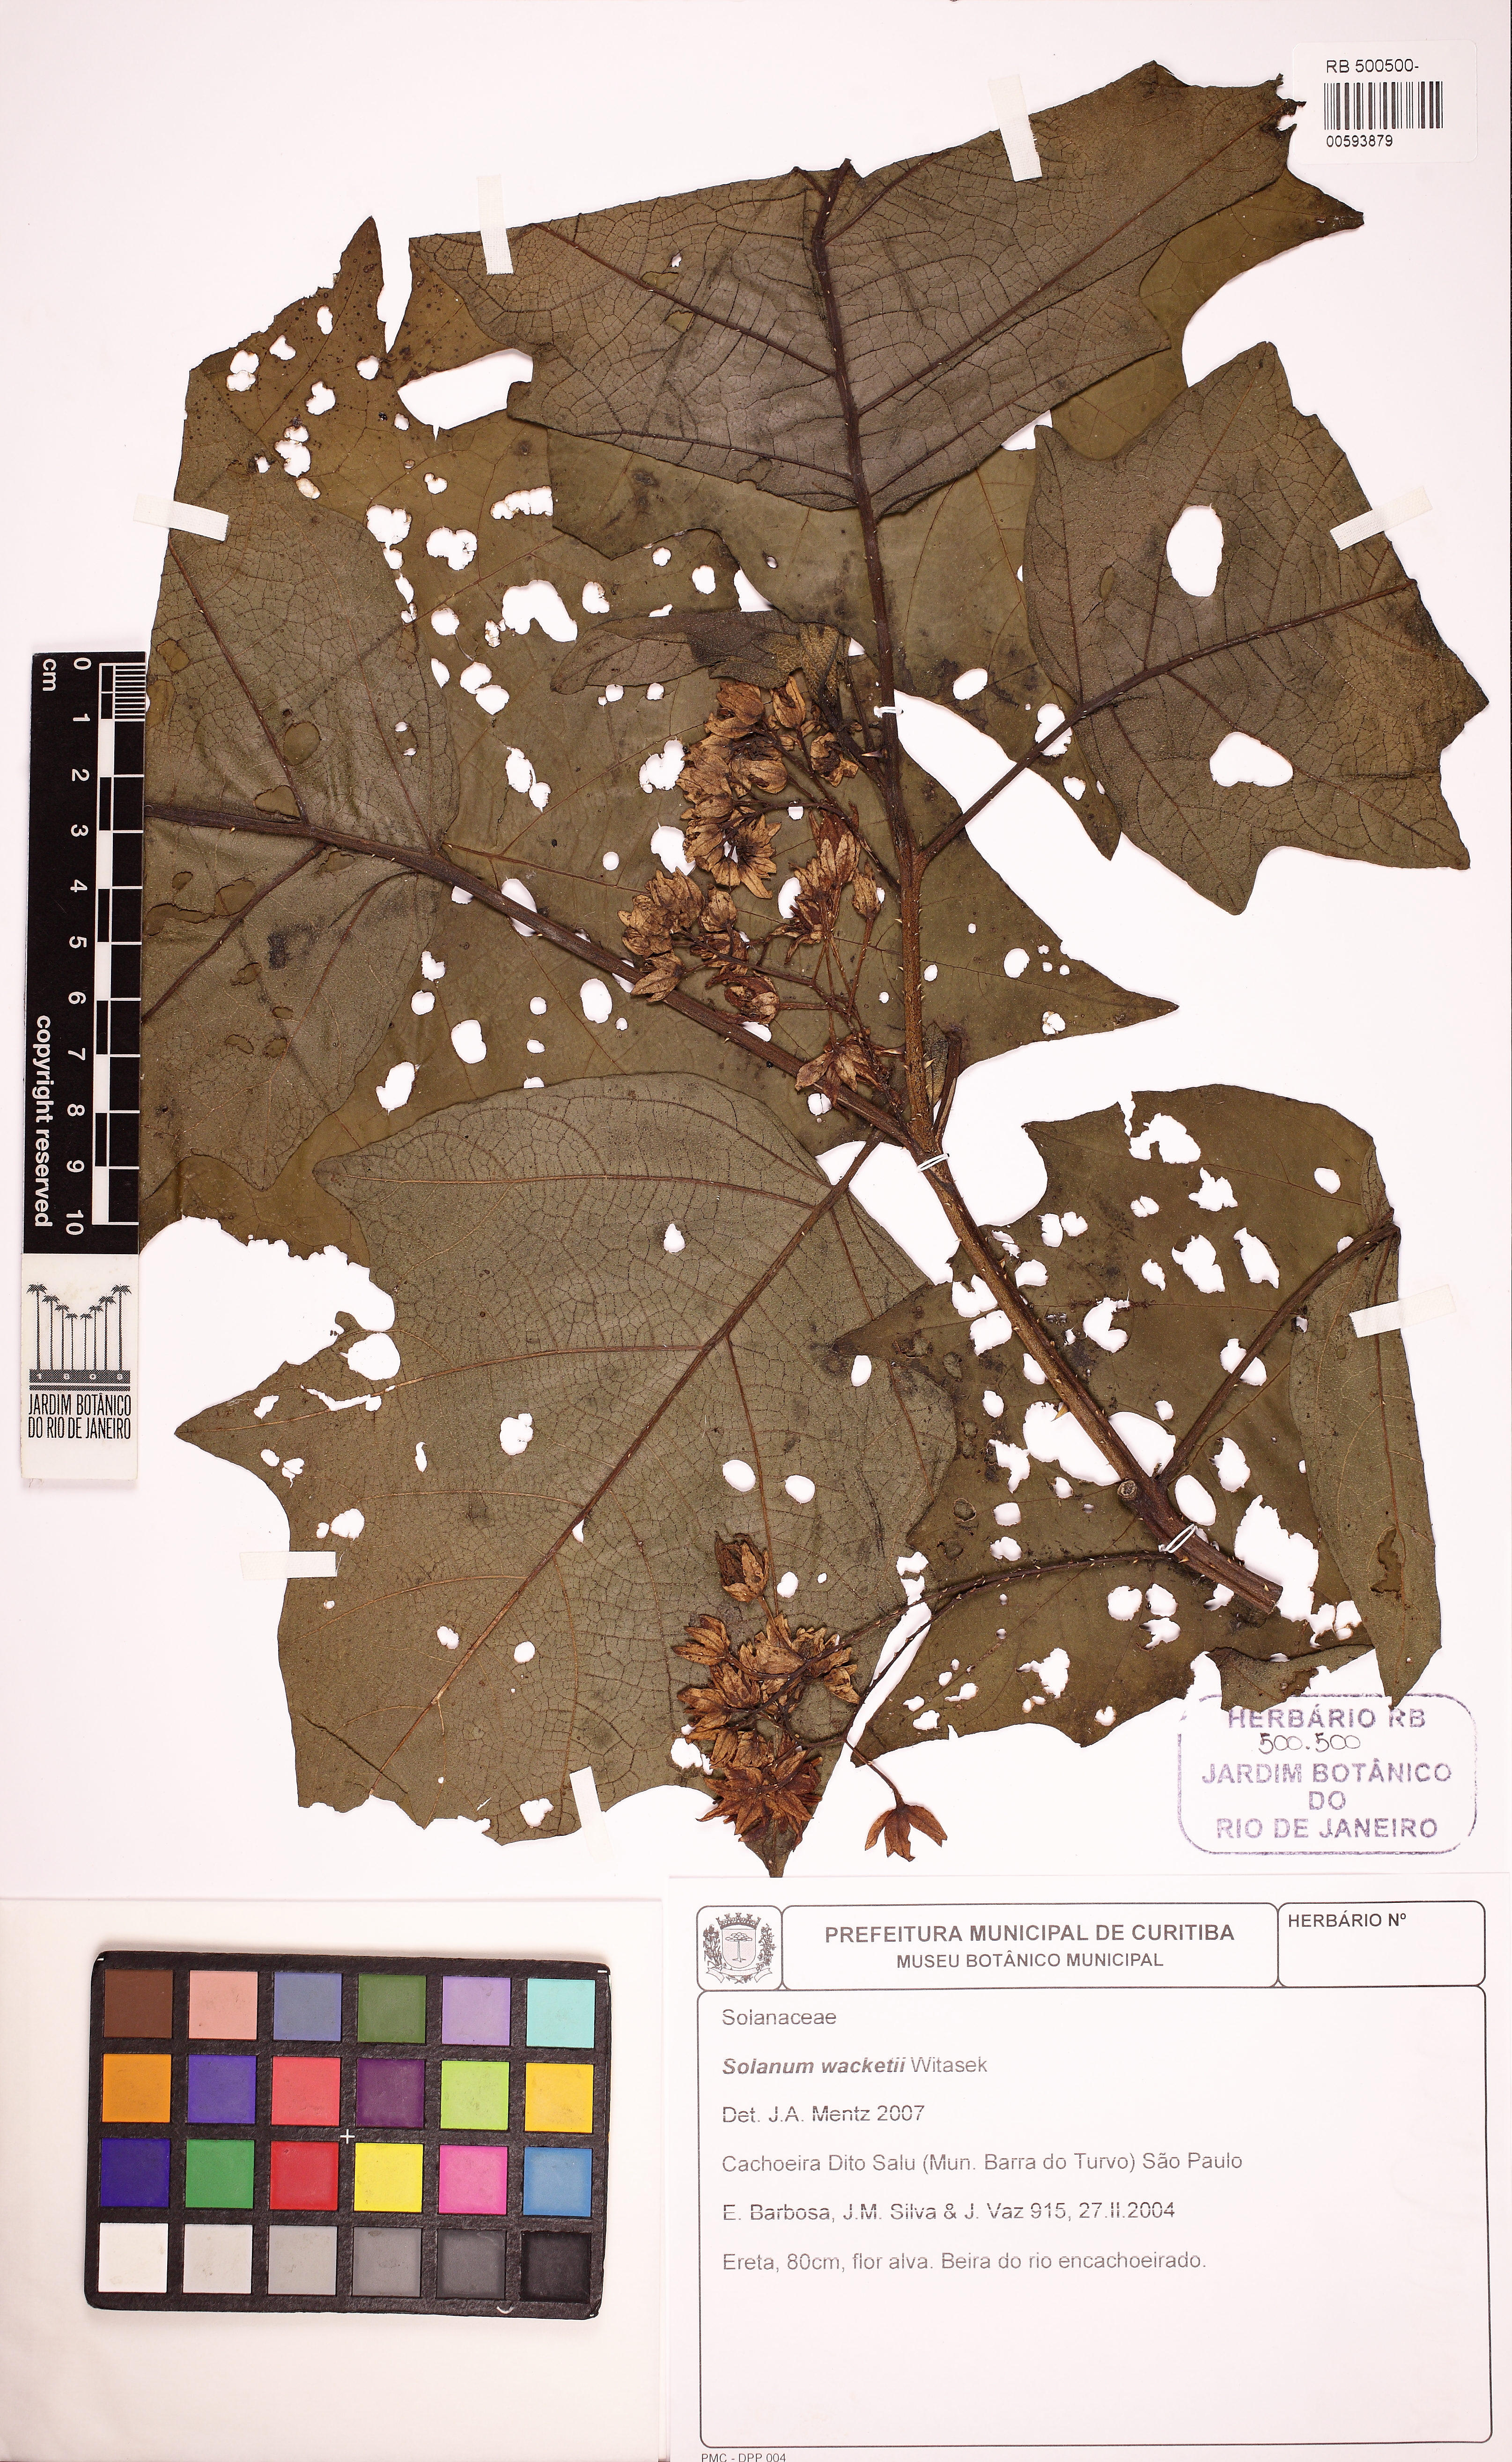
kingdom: Plantae
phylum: Tracheophyta
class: Magnoliopsida
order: Solanales
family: Solanaceae
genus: Solanum
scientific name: Solanum wacketii
